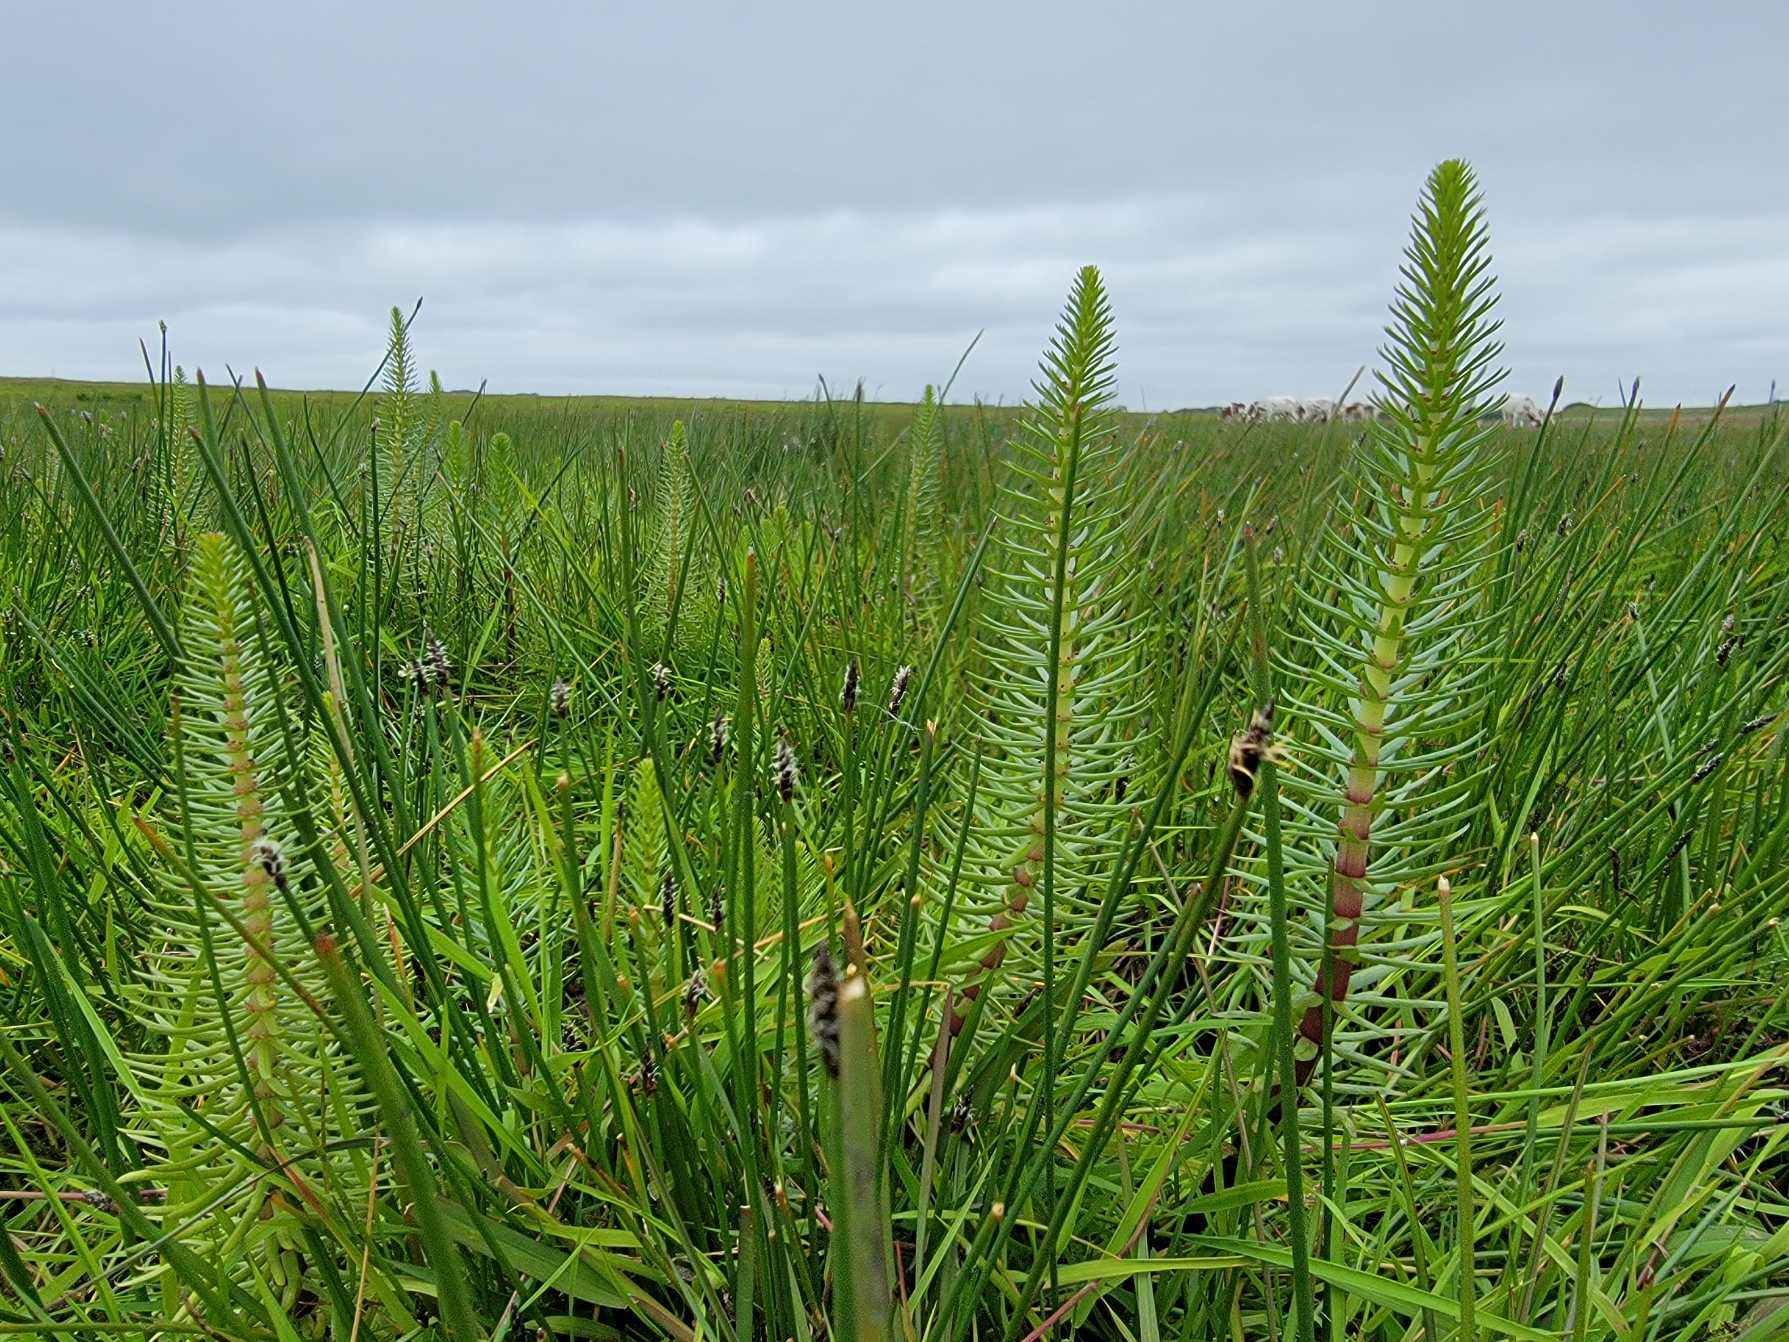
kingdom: Plantae
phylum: Tracheophyta
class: Magnoliopsida
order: Lamiales
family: Plantaginaceae
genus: Hippuris
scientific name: Hippuris vulgaris
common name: Vandspir
